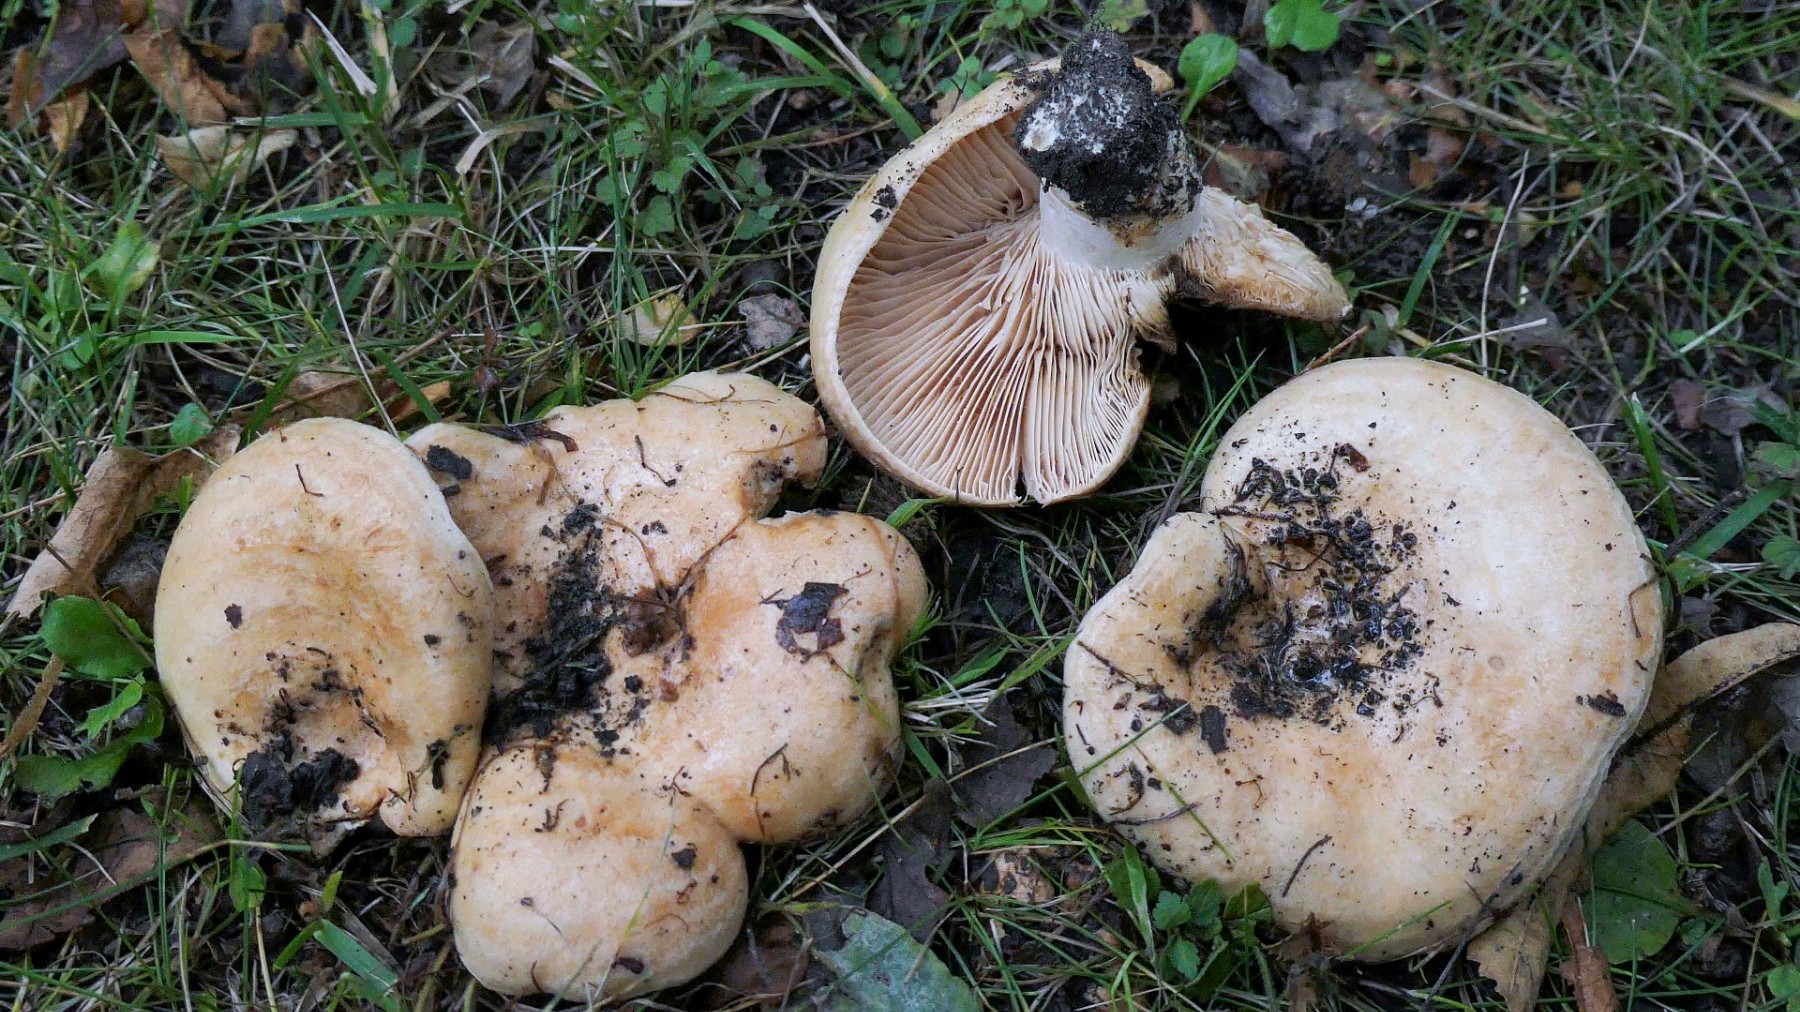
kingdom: Fungi
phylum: Basidiomycota
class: Agaricomycetes
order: Russulales
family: Russulaceae
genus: Lactarius
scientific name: Lactarius acerrimus
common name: brændende mælkehat
